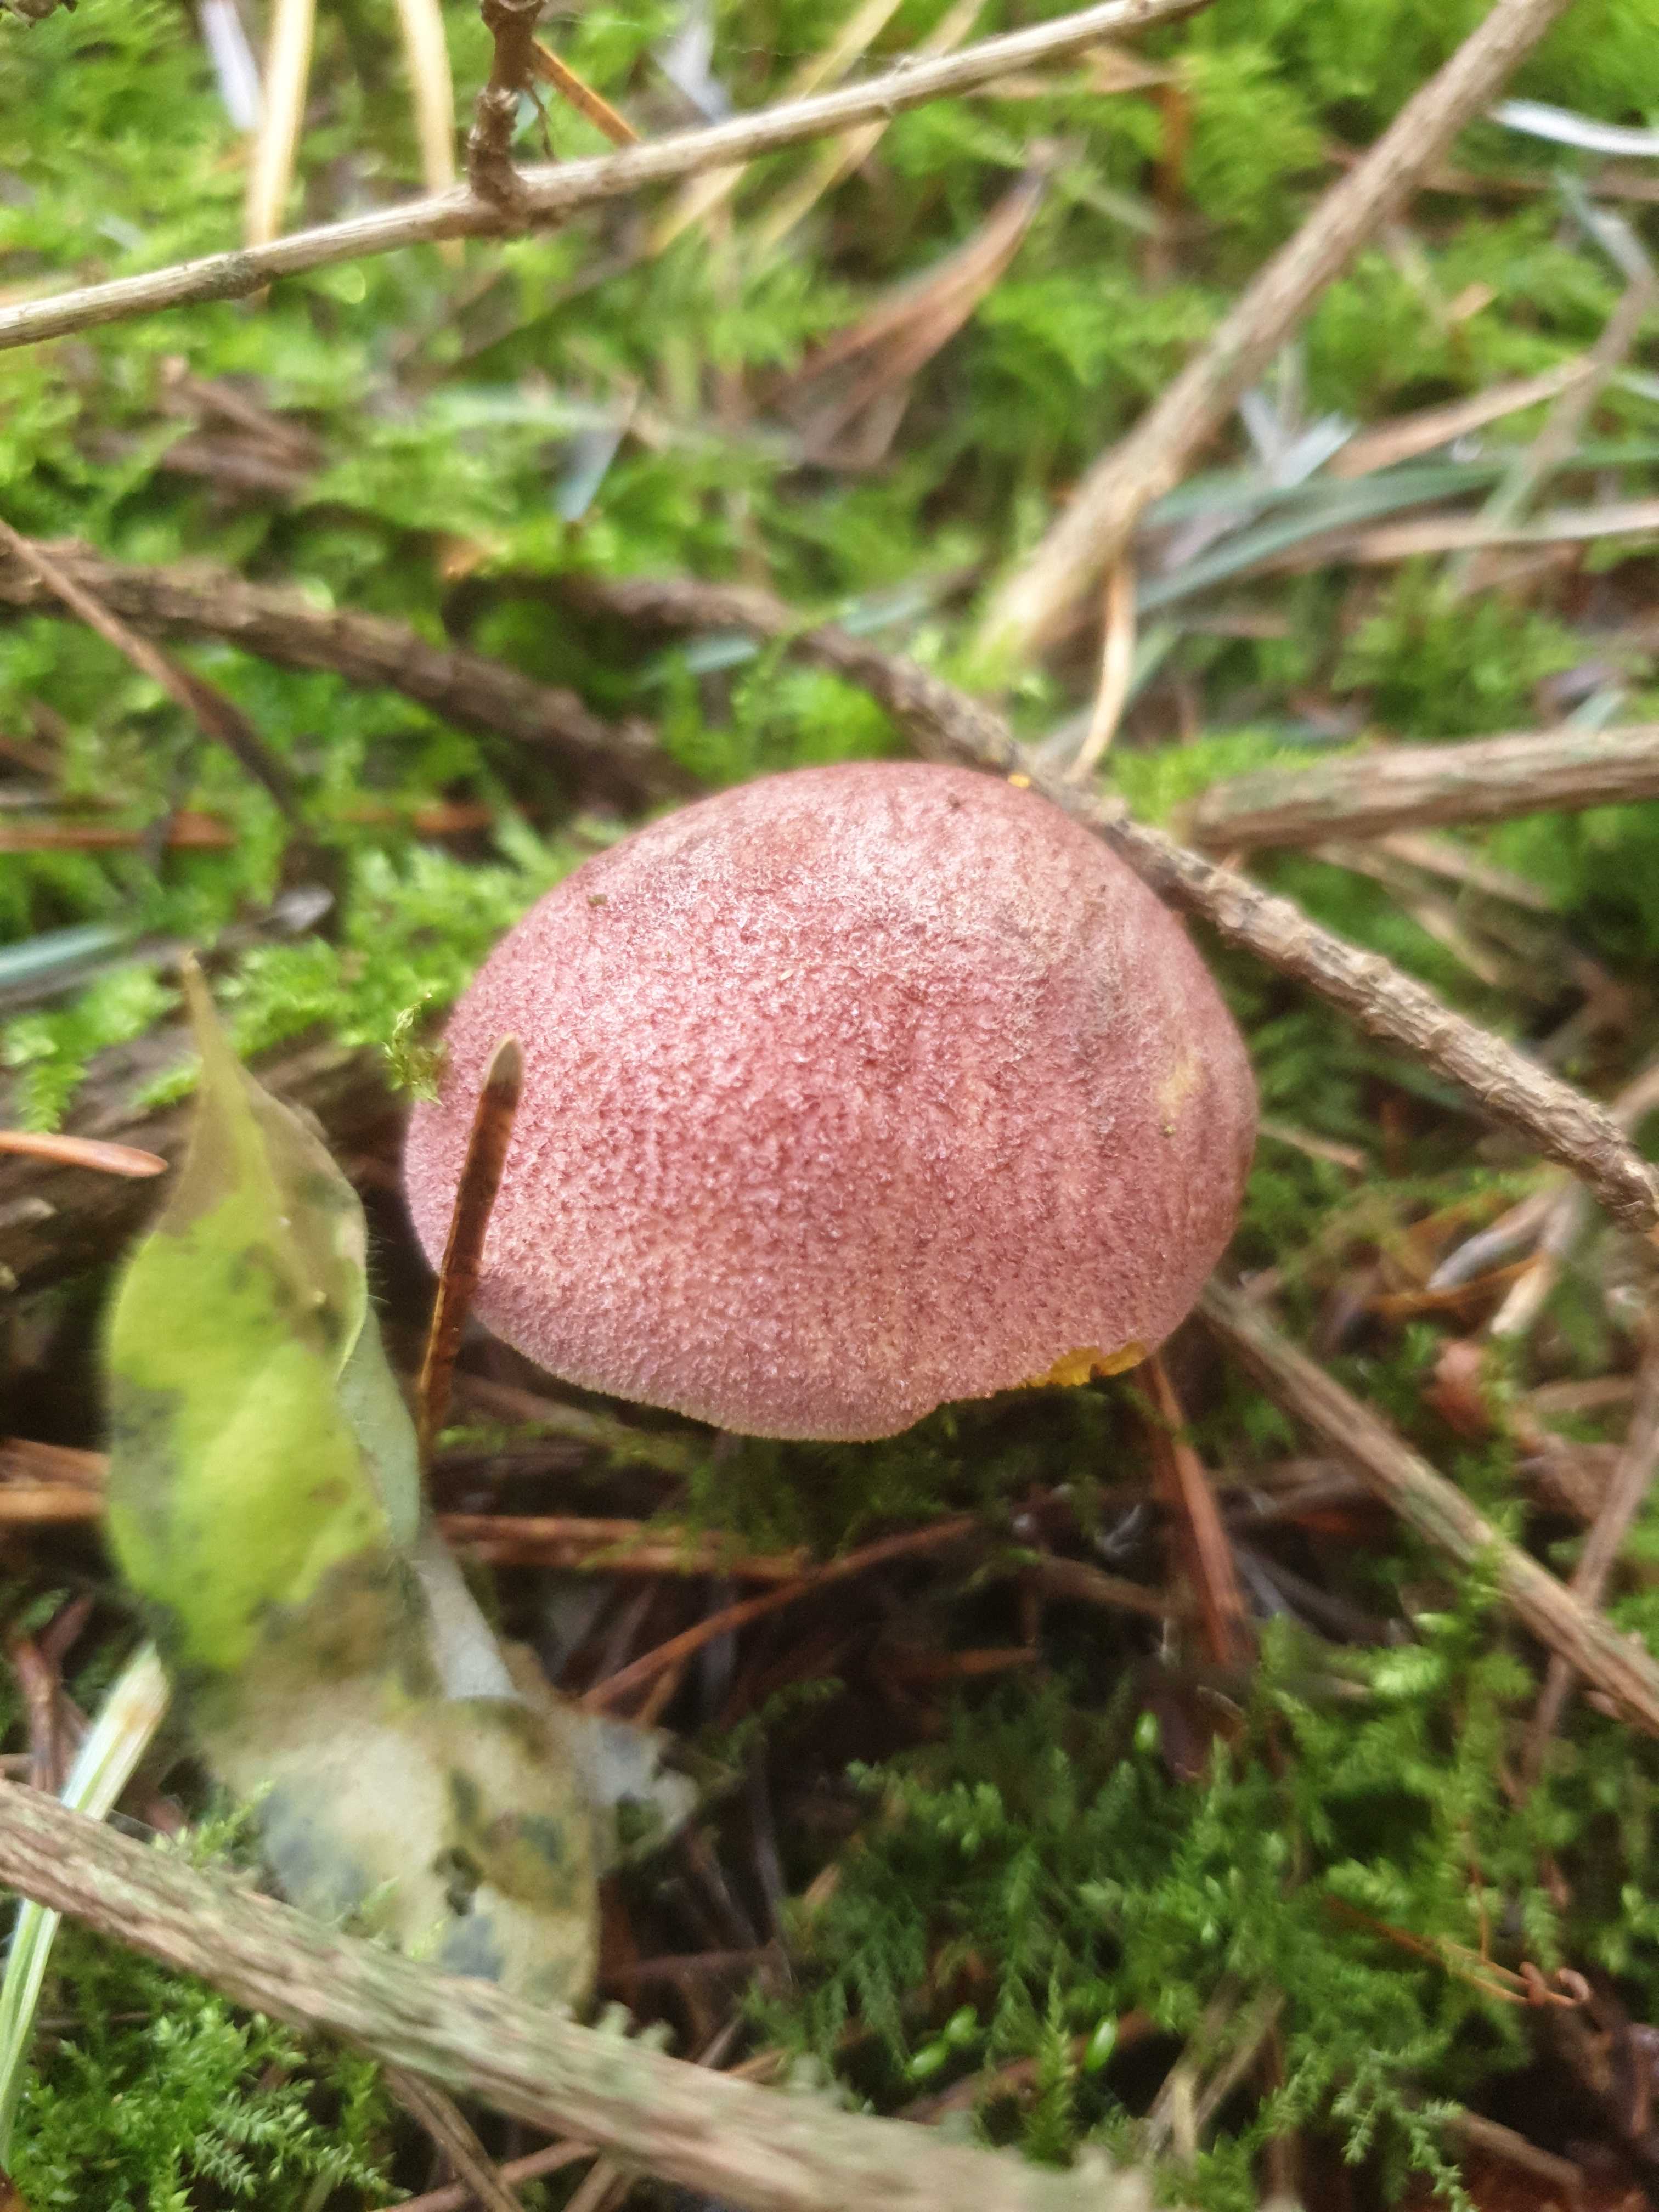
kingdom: Fungi
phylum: Basidiomycota
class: Agaricomycetes
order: Agaricales
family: Tricholomataceae
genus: Tricholomopsis
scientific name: Tricholomopsis rutilans
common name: purpur-væbnerhat
